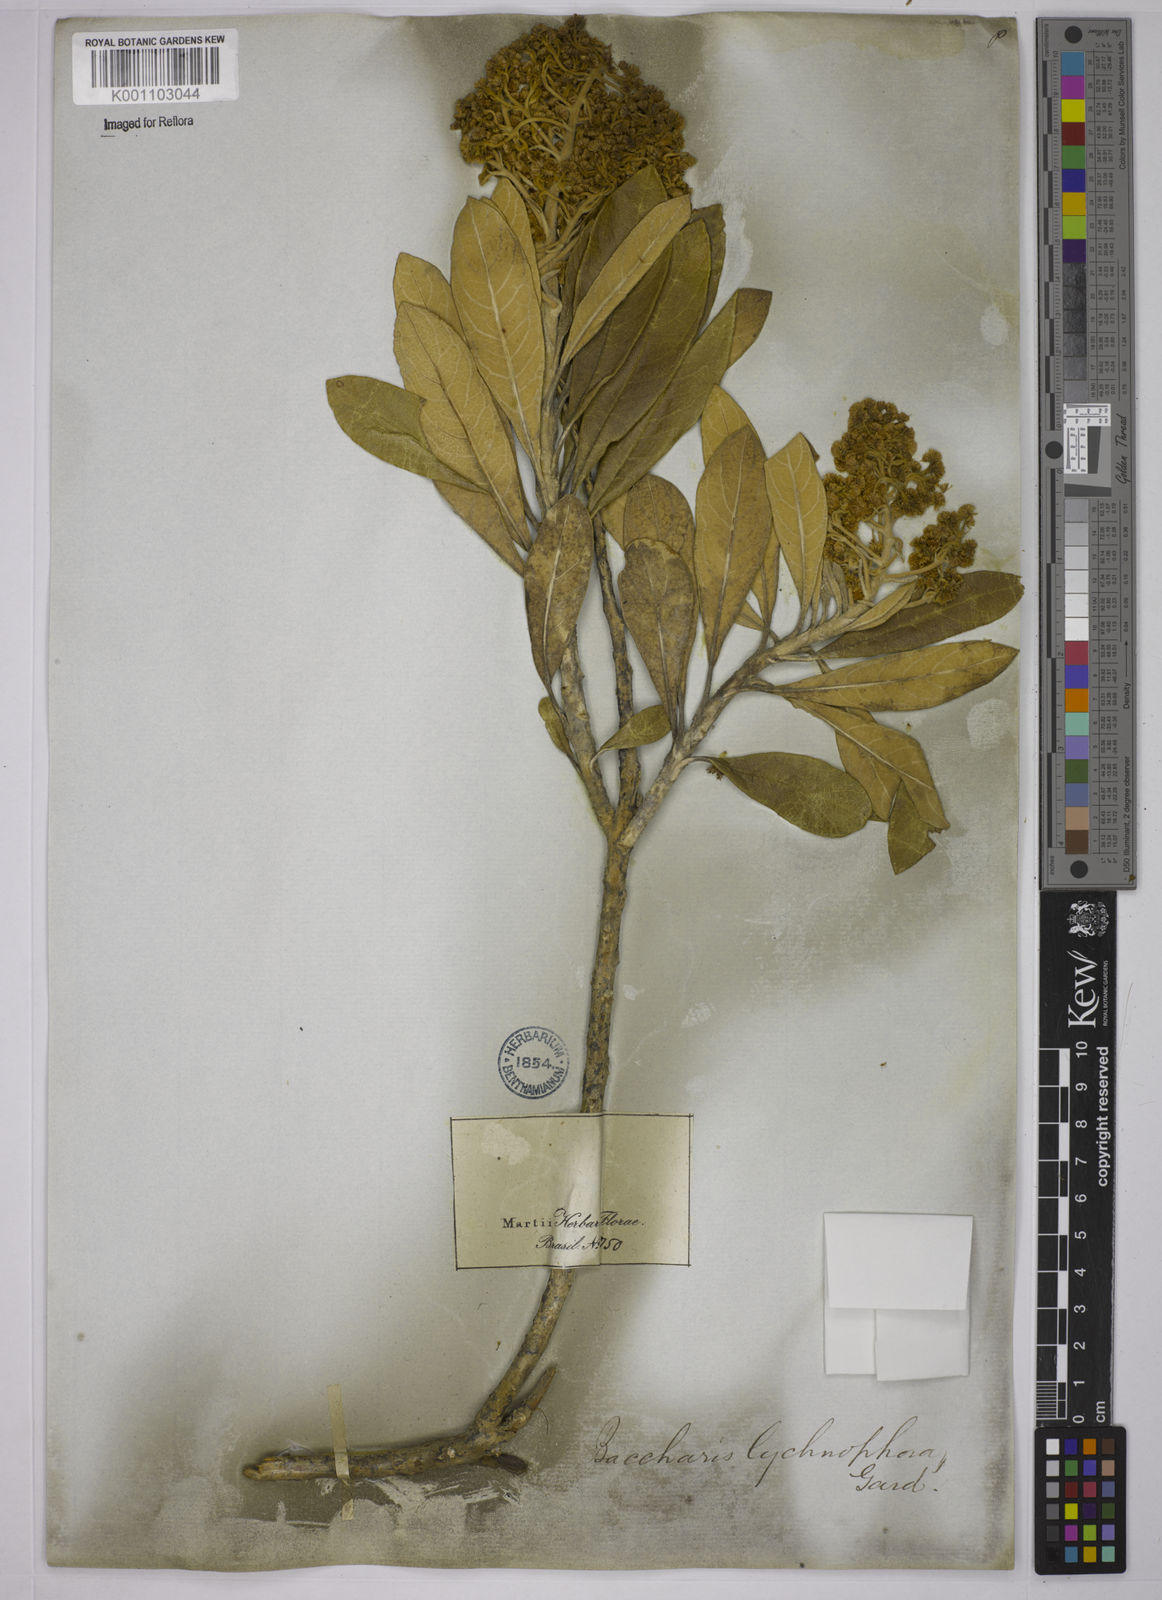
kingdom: Plantae
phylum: Tracheophyta
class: Magnoliopsida
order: Asterales
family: Asteraceae
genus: Baccharis
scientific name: Baccharis lychnophora
